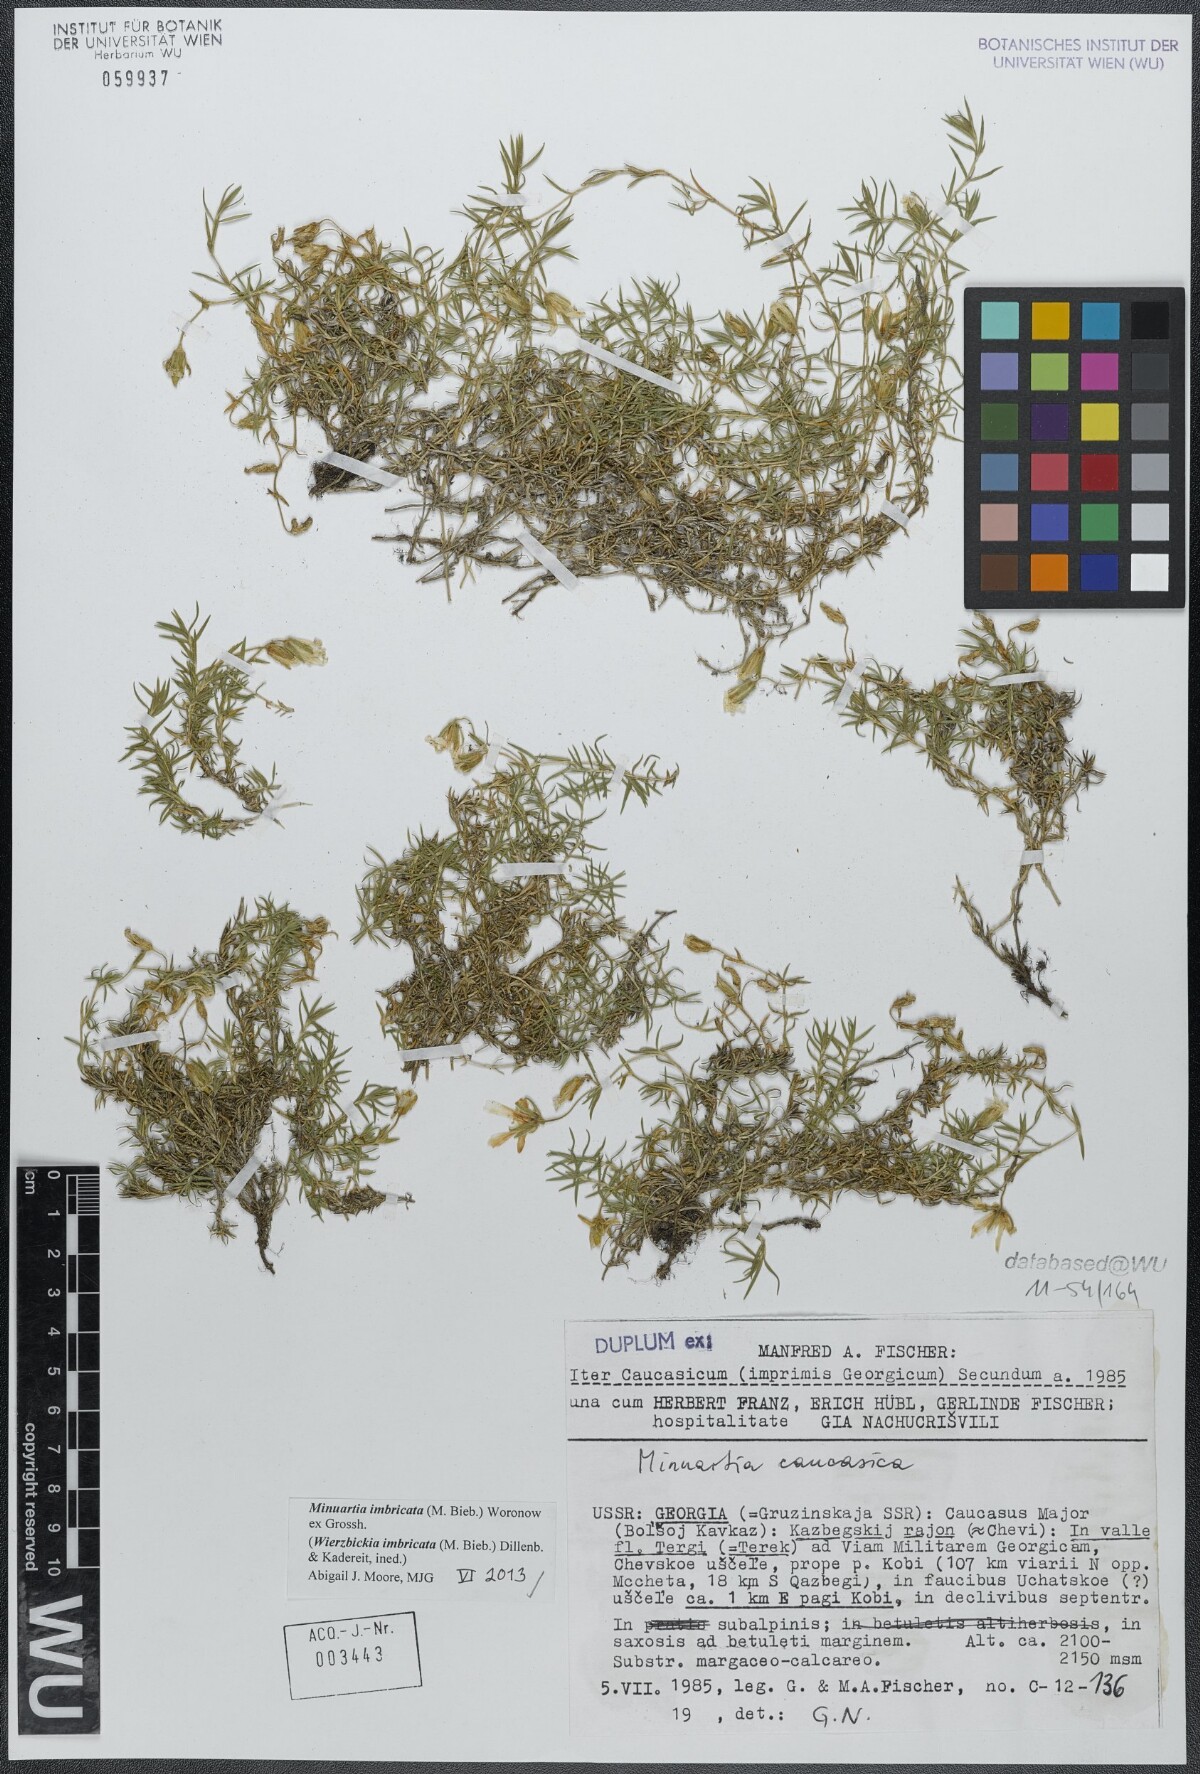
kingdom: Plantae
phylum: Tracheophyta
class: Magnoliopsida
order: Caryophyllales
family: Caryophyllaceae
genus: Pseudocherleria
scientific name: Pseudocherleria imbricata
